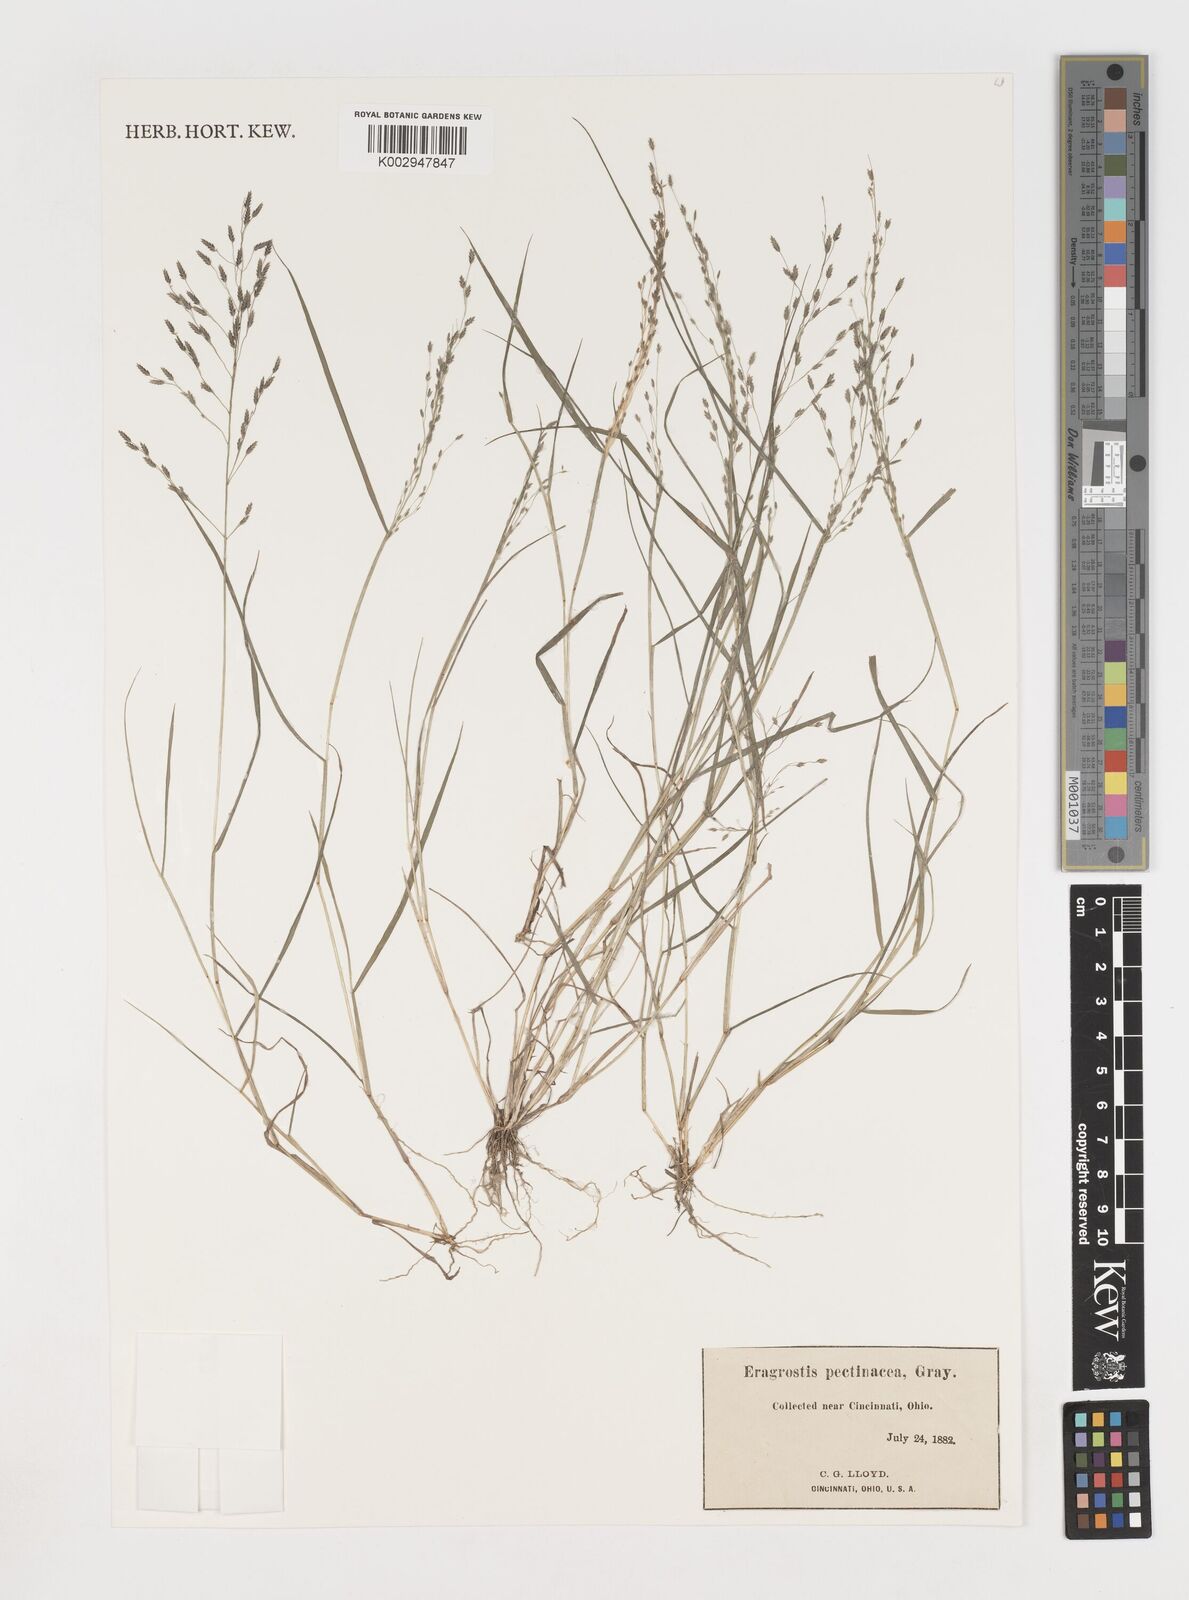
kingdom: Plantae
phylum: Tracheophyta
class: Liliopsida
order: Poales
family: Poaceae
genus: Eragrostis
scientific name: Eragrostis pectinacea
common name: Tufted lovegrass
